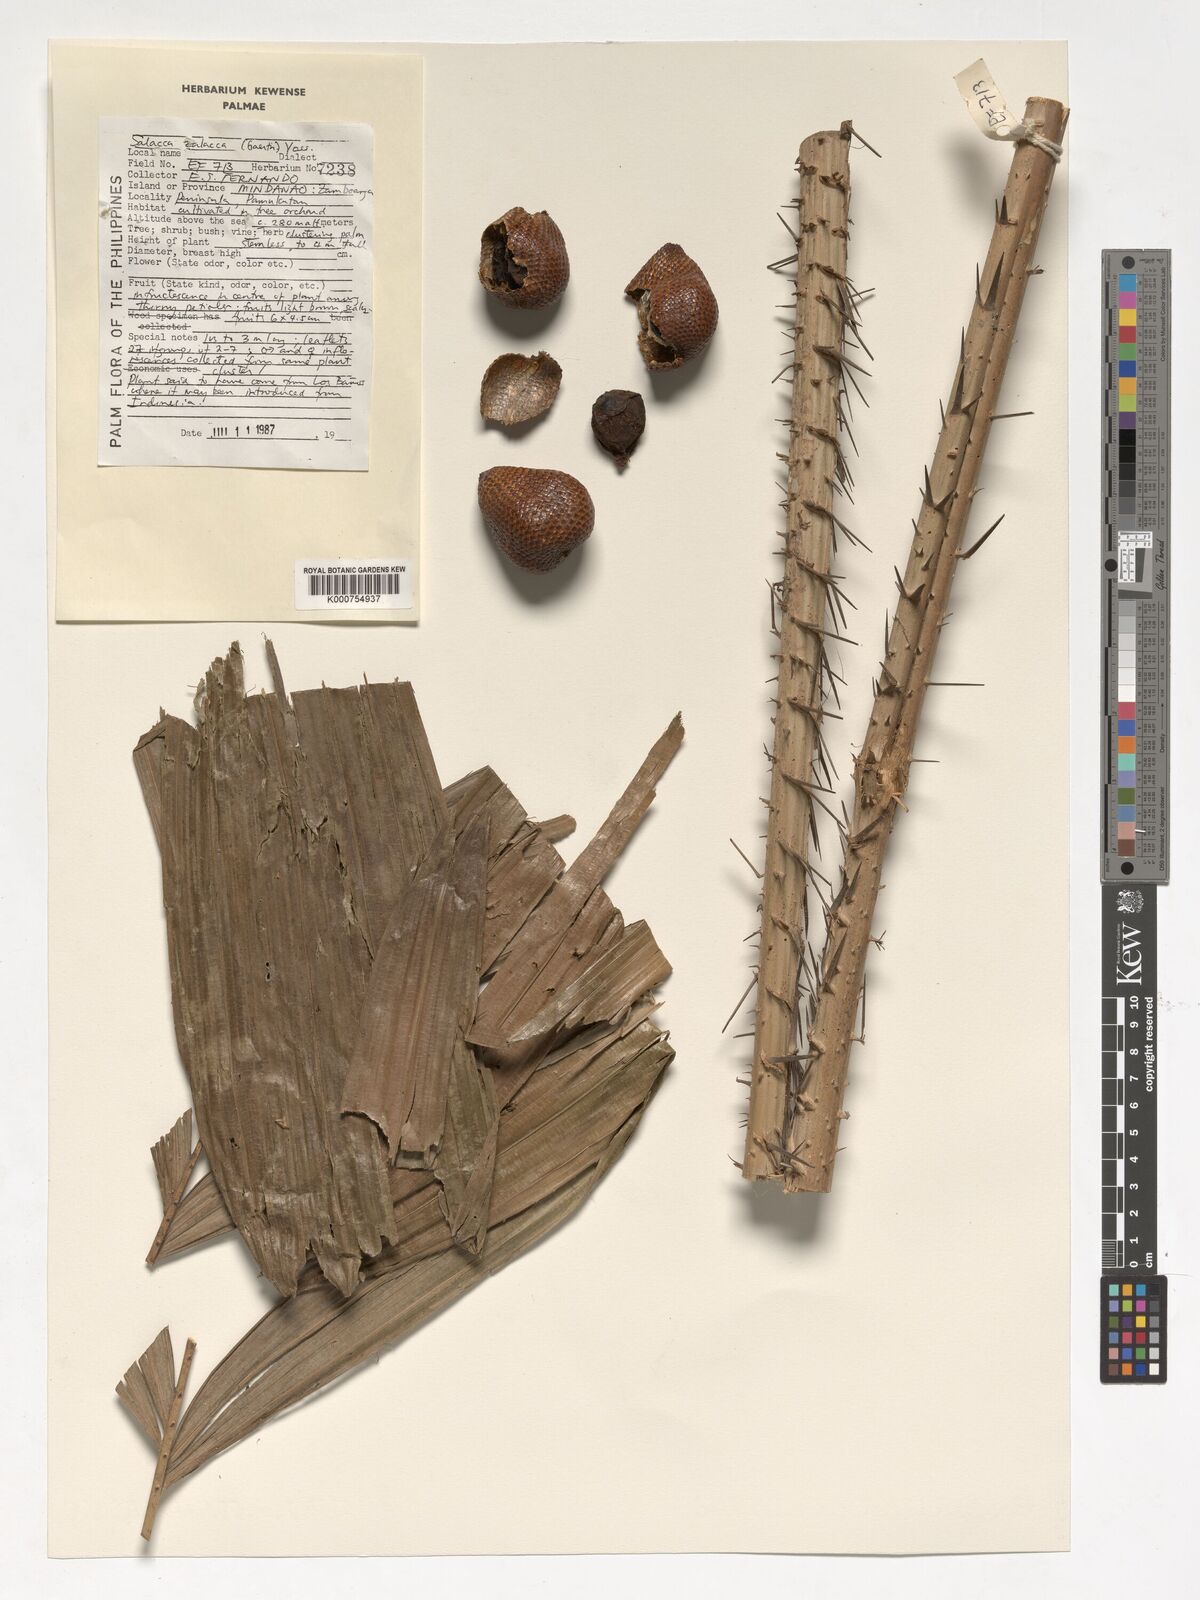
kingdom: Plantae
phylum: Tracheophyta
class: Liliopsida
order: Arecales
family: Arecaceae
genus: Salacca
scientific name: Salacca zalacca
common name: Salak
